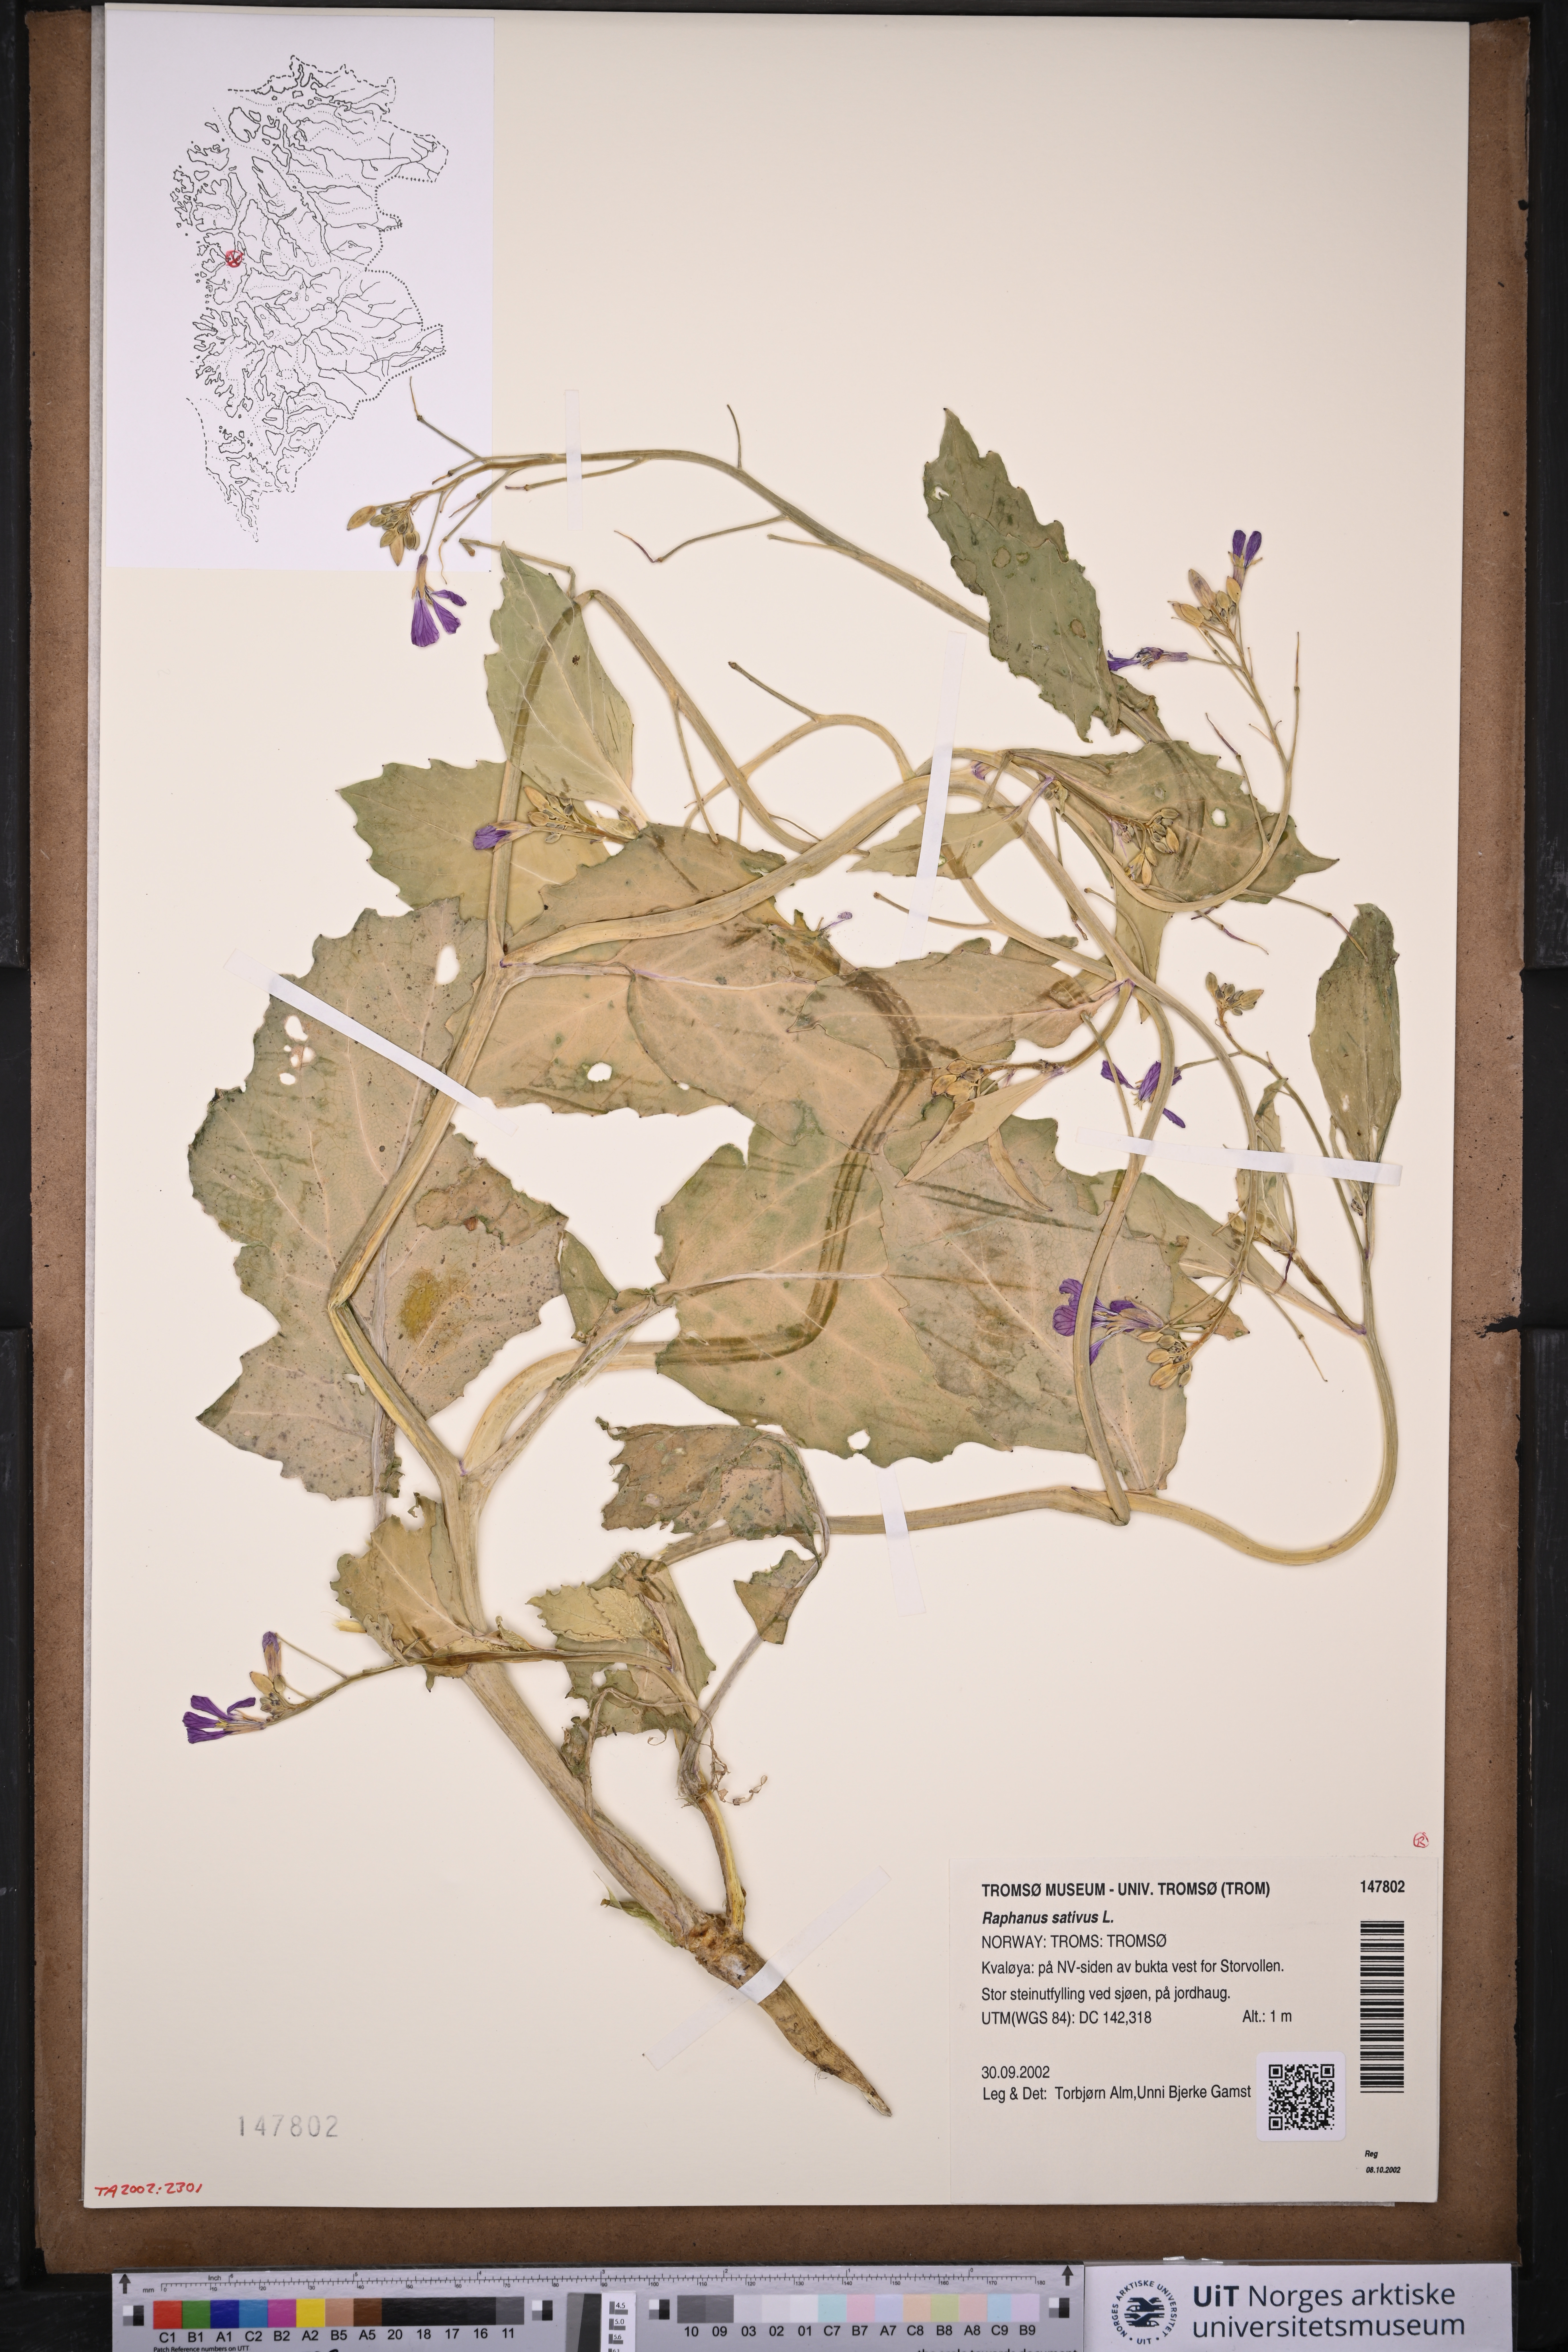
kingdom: Plantae
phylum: Tracheophyta
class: Magnoliopsida
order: Brassicales
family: Brassicaceae
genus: Raphanus
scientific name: Raphanus sativus
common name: Cultivated radish
